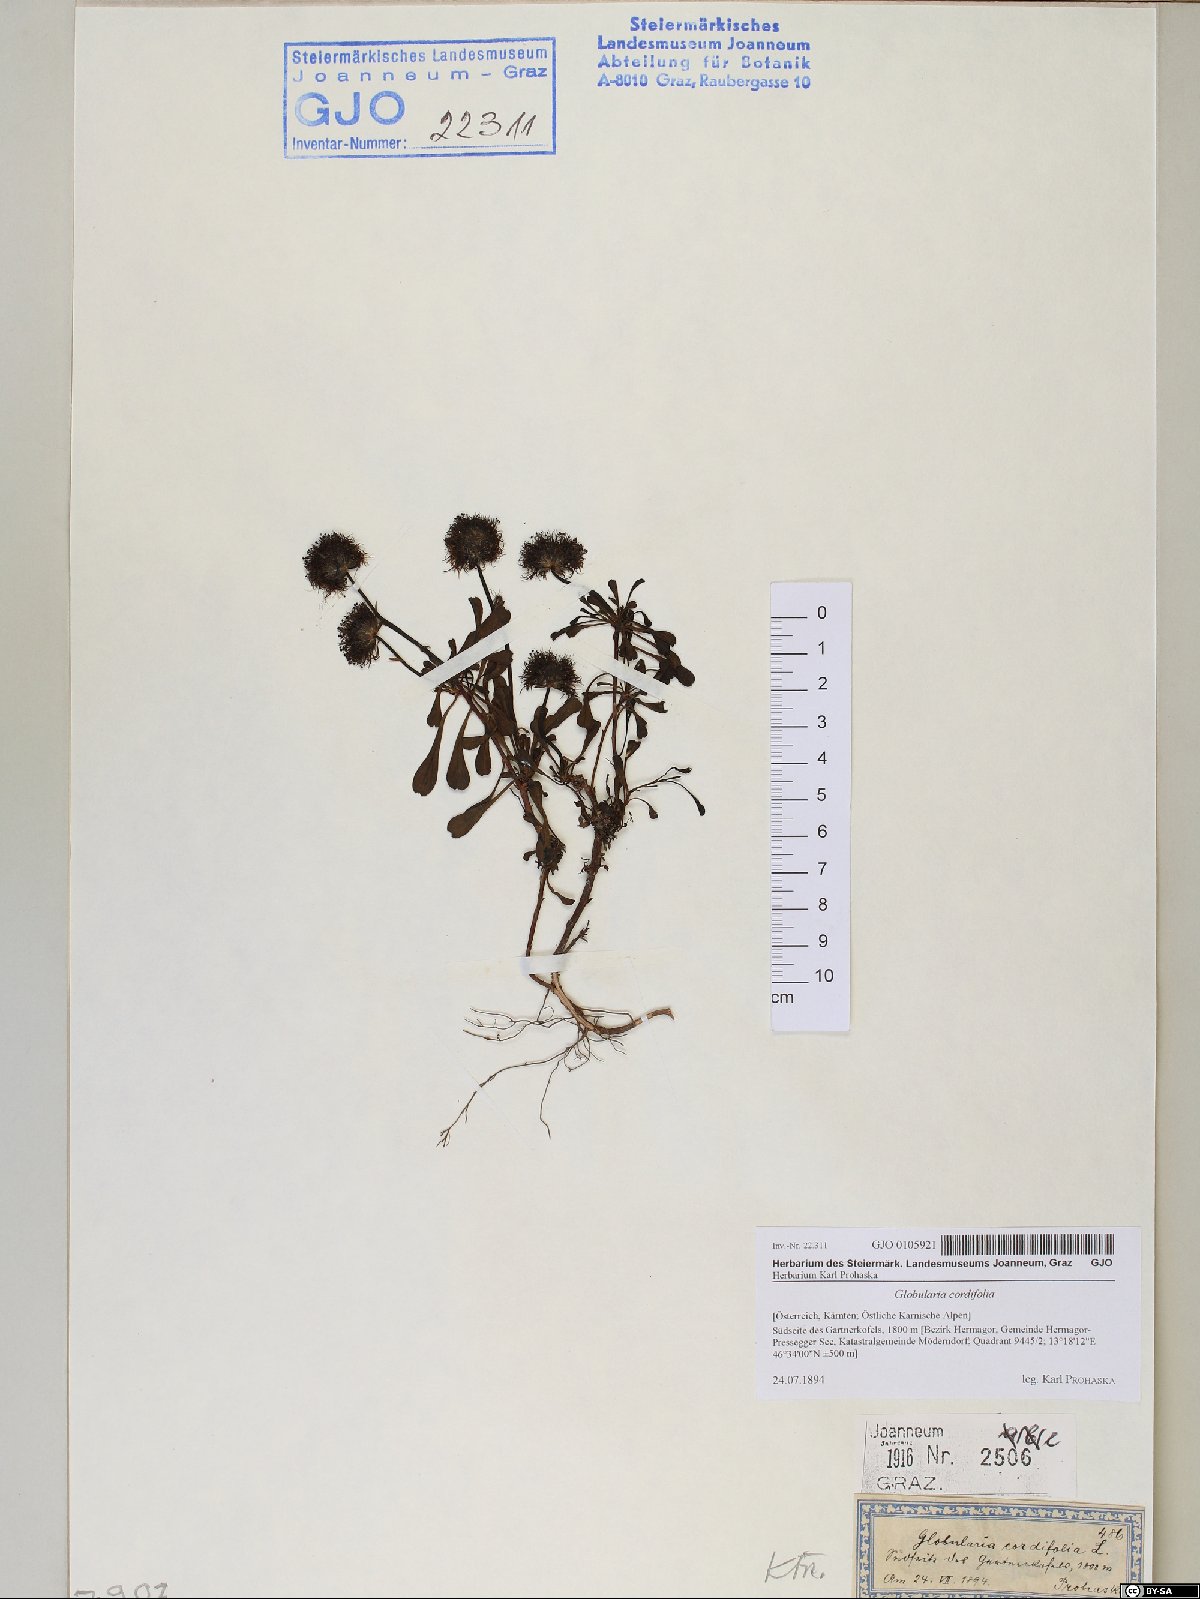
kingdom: Plantae
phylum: Tracheophyta
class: Magnoliopsida
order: Lamiales
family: Plantaginaceae
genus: Globularia
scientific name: Globularia cordifolia
